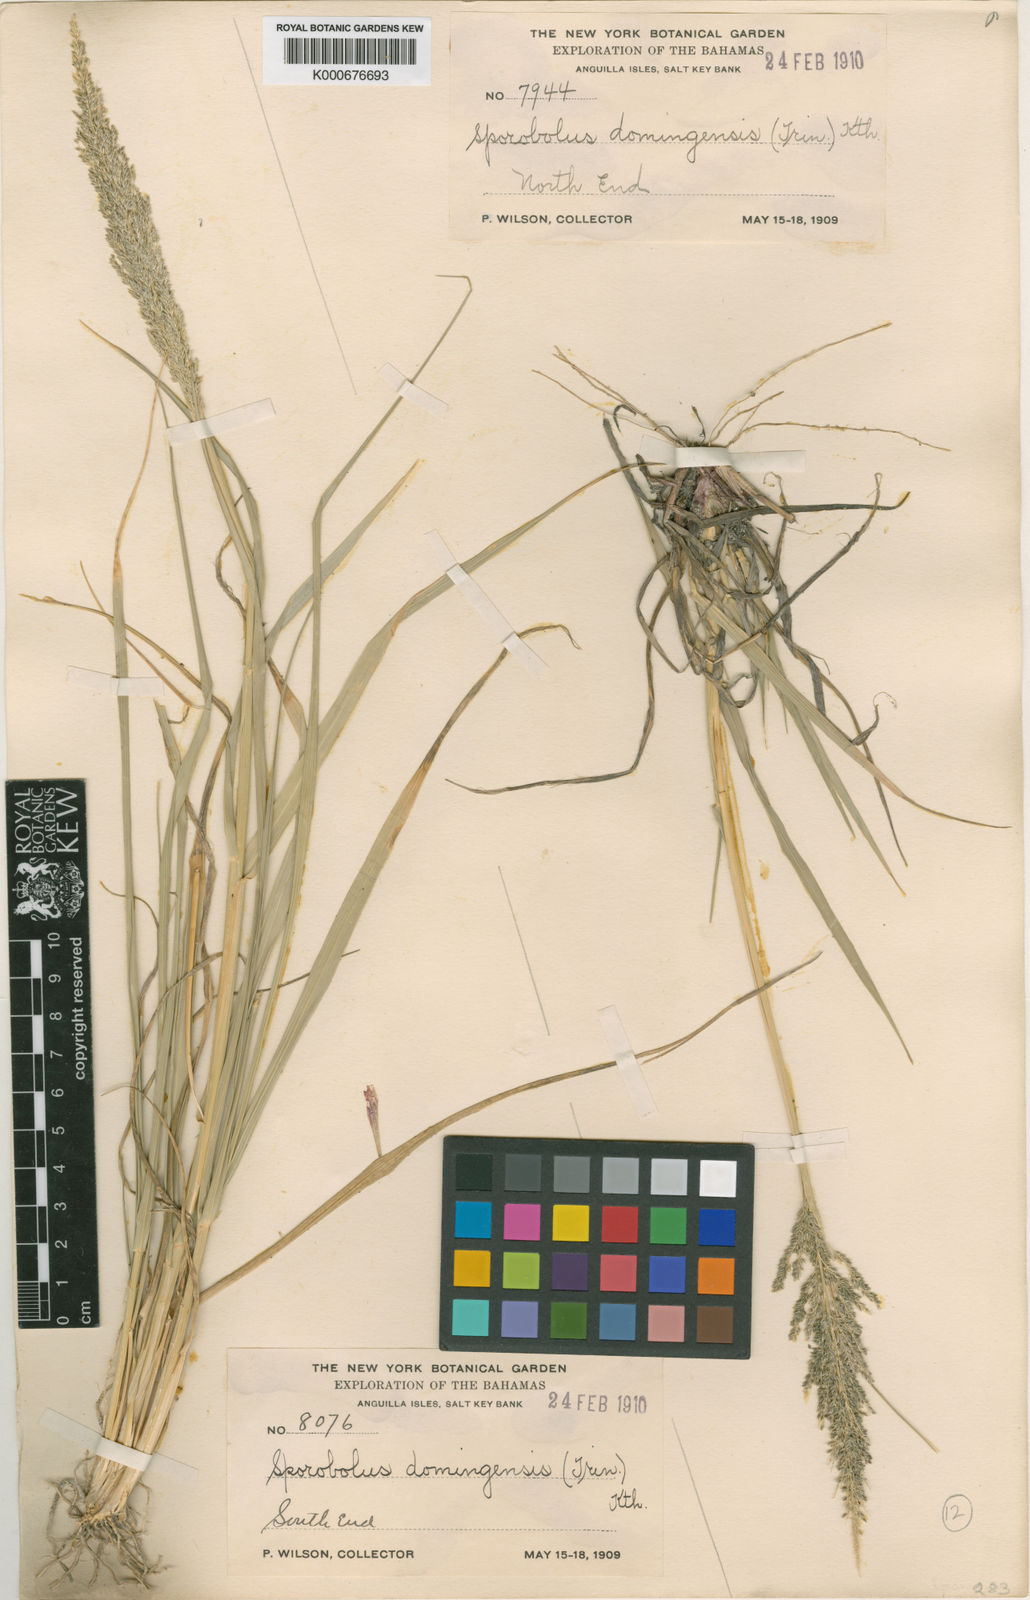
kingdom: Plantae
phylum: Tracheophyta
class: Liliopsida
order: Poales
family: Poaceae
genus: Sporobolus
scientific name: Sporobolus domingensis
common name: Coral dropseed
